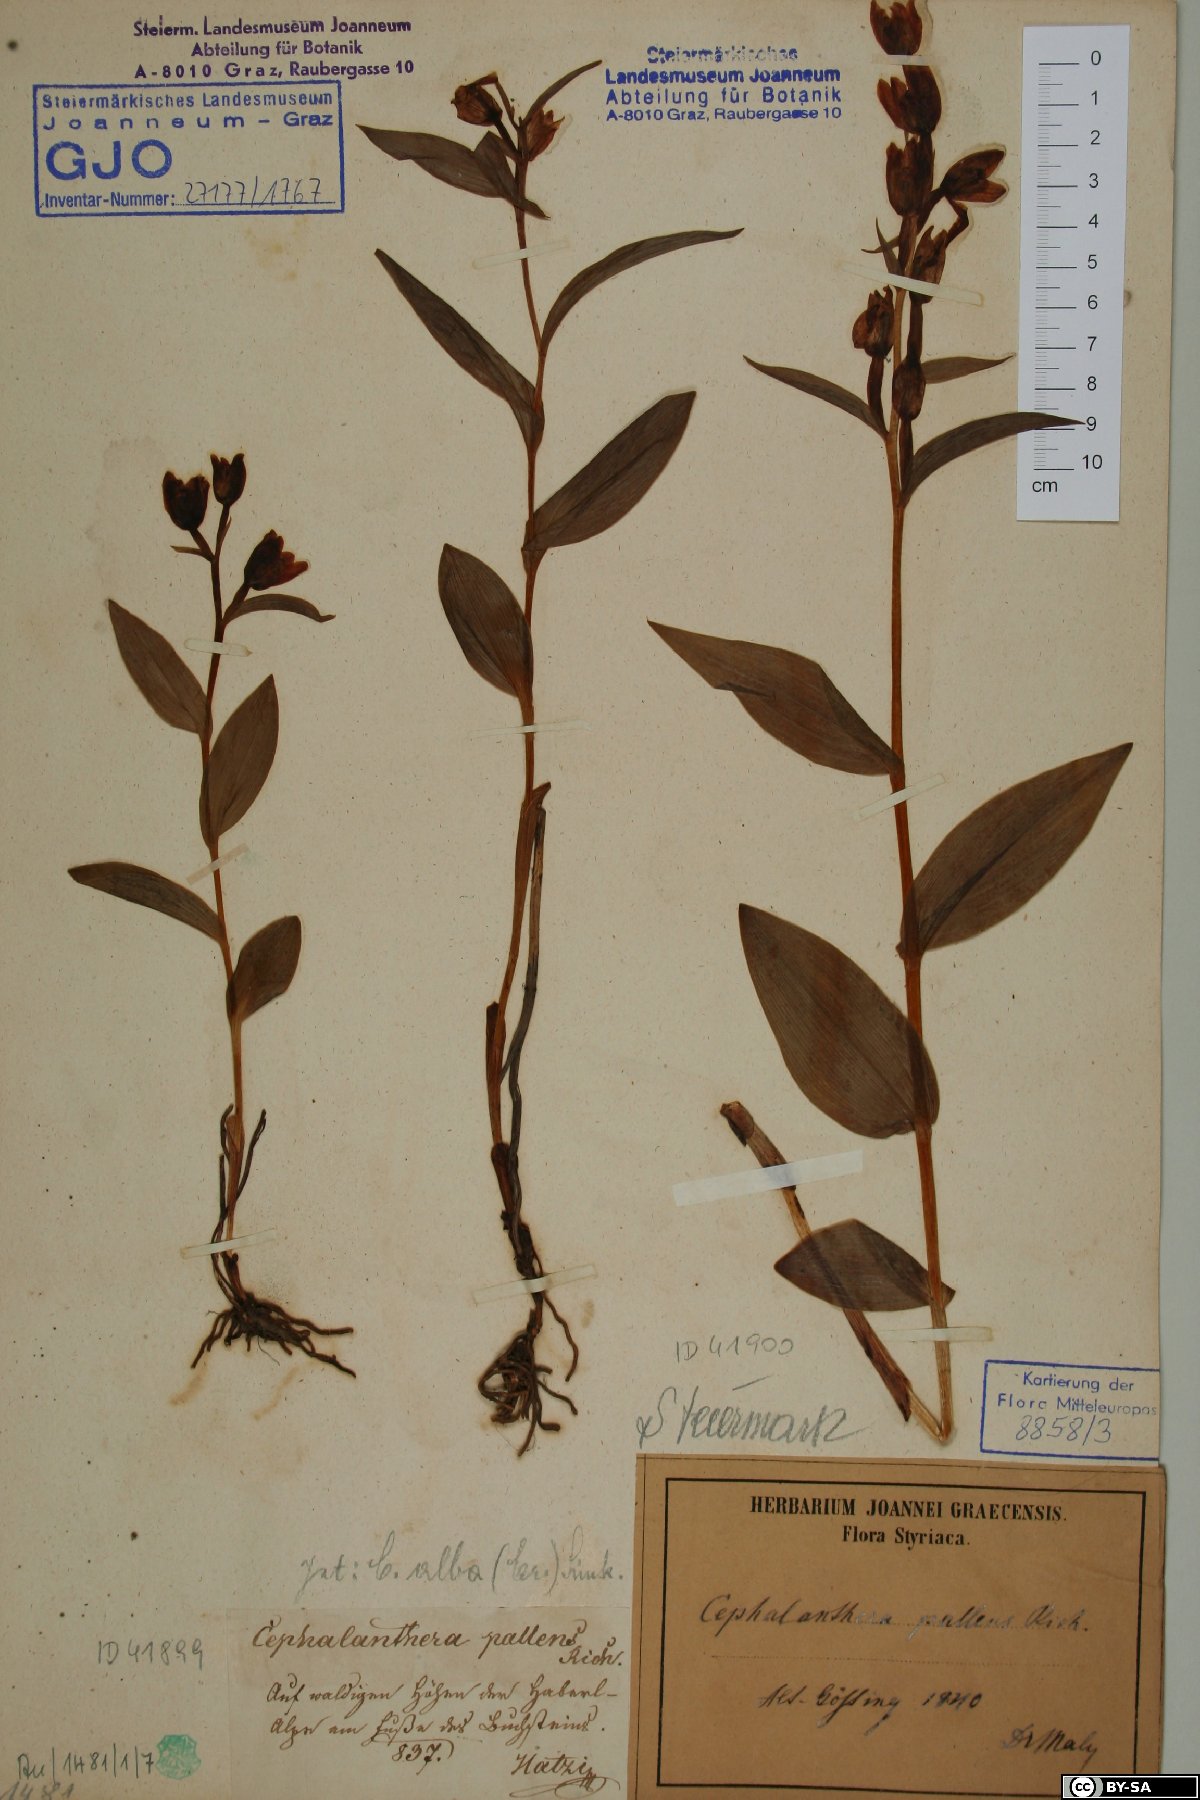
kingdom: Plantae
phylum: Tracheophyta
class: Liliopsida
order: Asparagales
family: Orchidaceae
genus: Cephalanthera
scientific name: Cephalanthera longifolia
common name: Narrow-leaved helleborine
